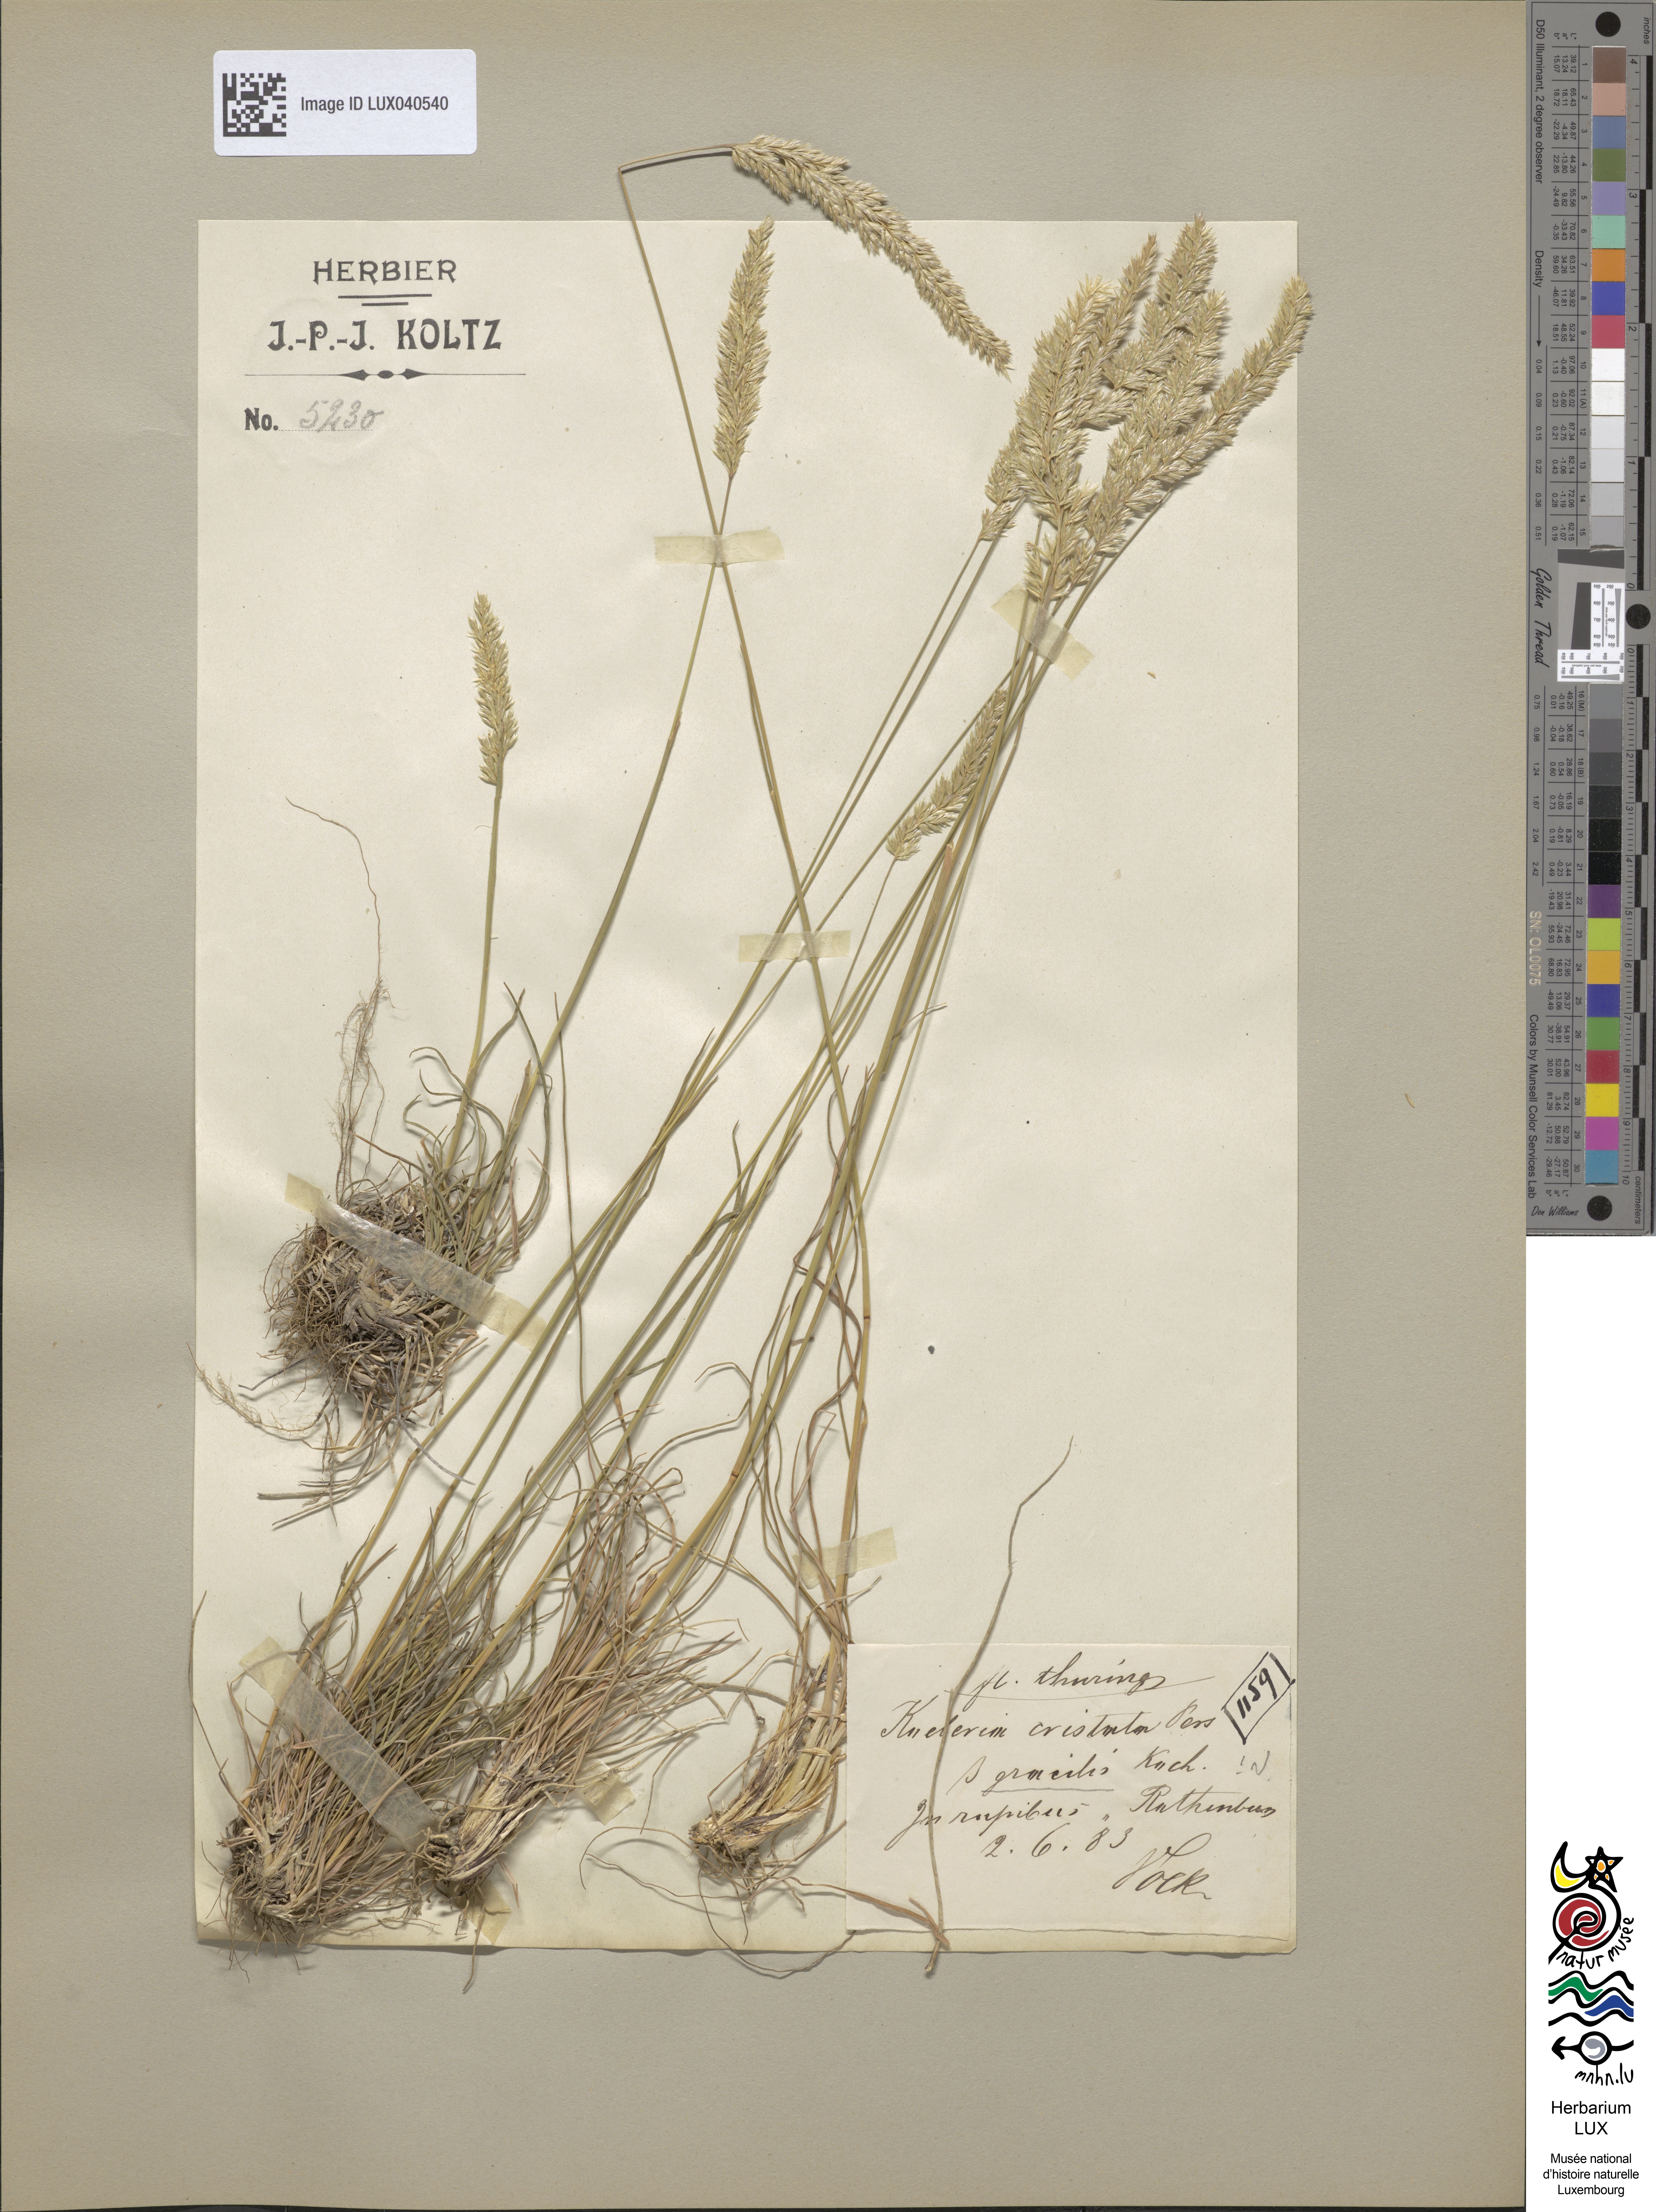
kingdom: Plantae
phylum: Tracheophyta
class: Liliopsida
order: Poales
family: Poaceae
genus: Koeleria
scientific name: Koeleria
